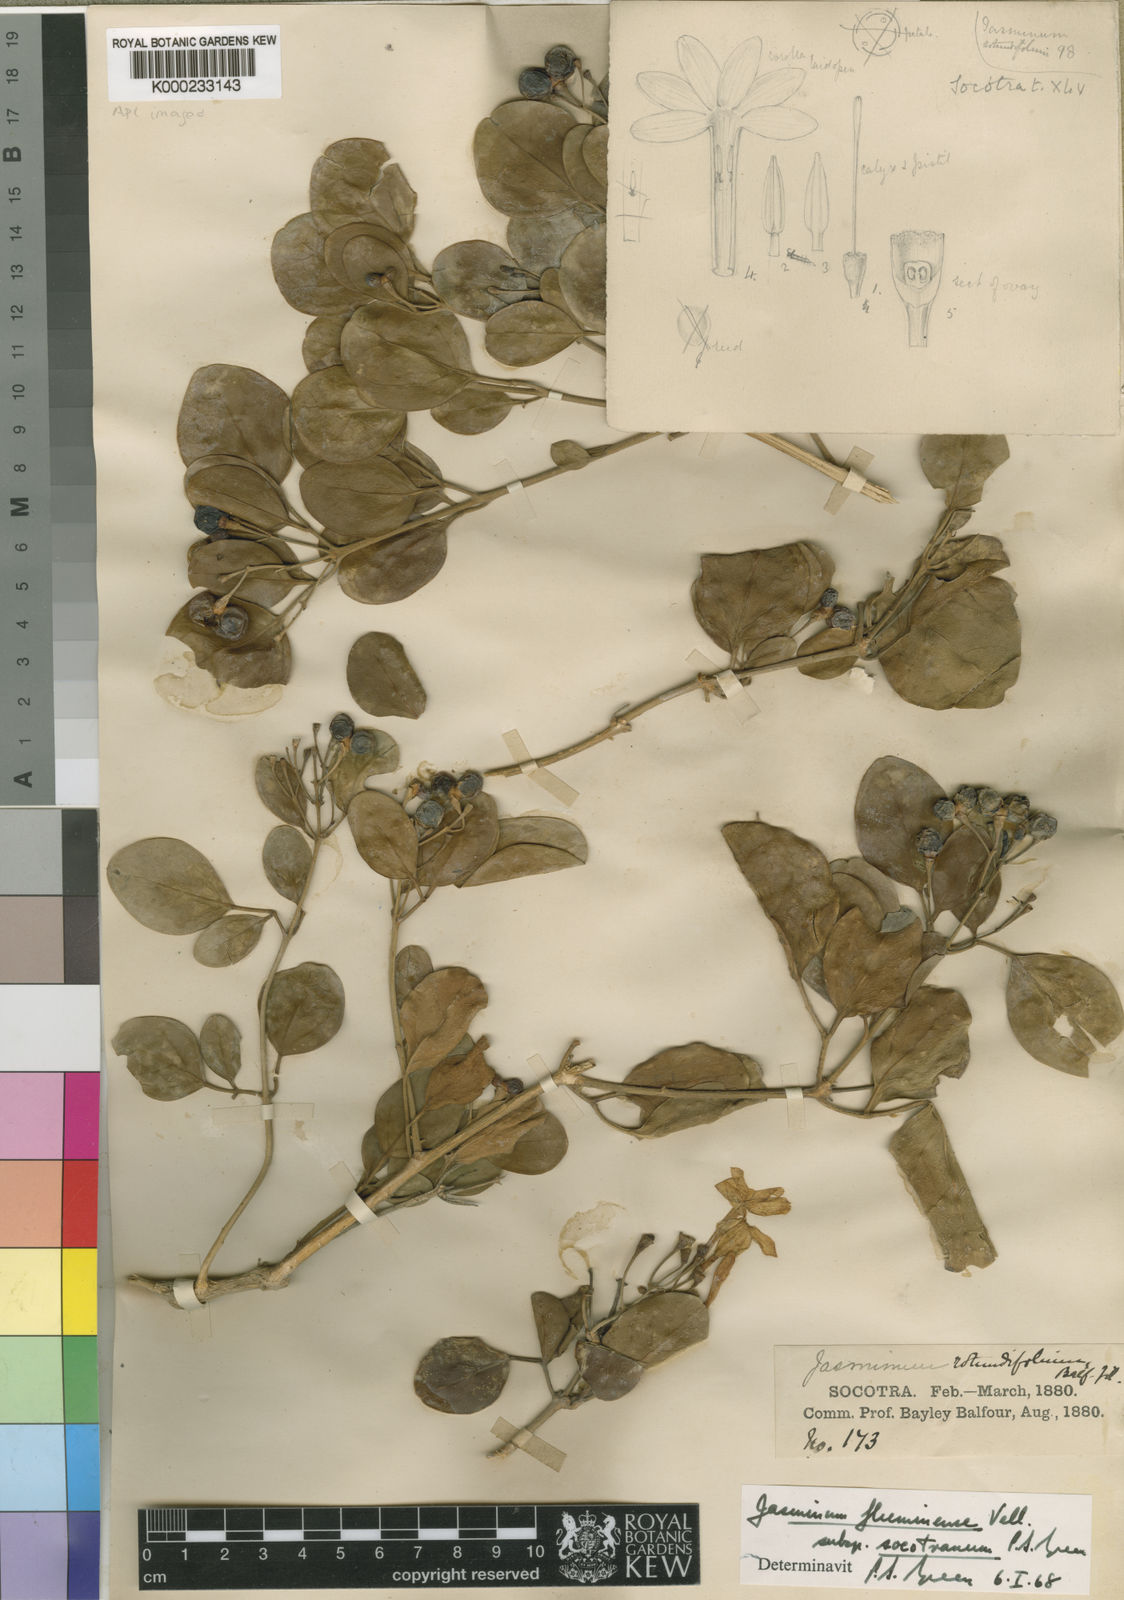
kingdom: Plantae
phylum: Tracheophyta
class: Magnoliopsida
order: Lamiales
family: Oleaceae
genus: Jasminum
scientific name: Jasminum fluminense
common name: Brazilian jasmine
